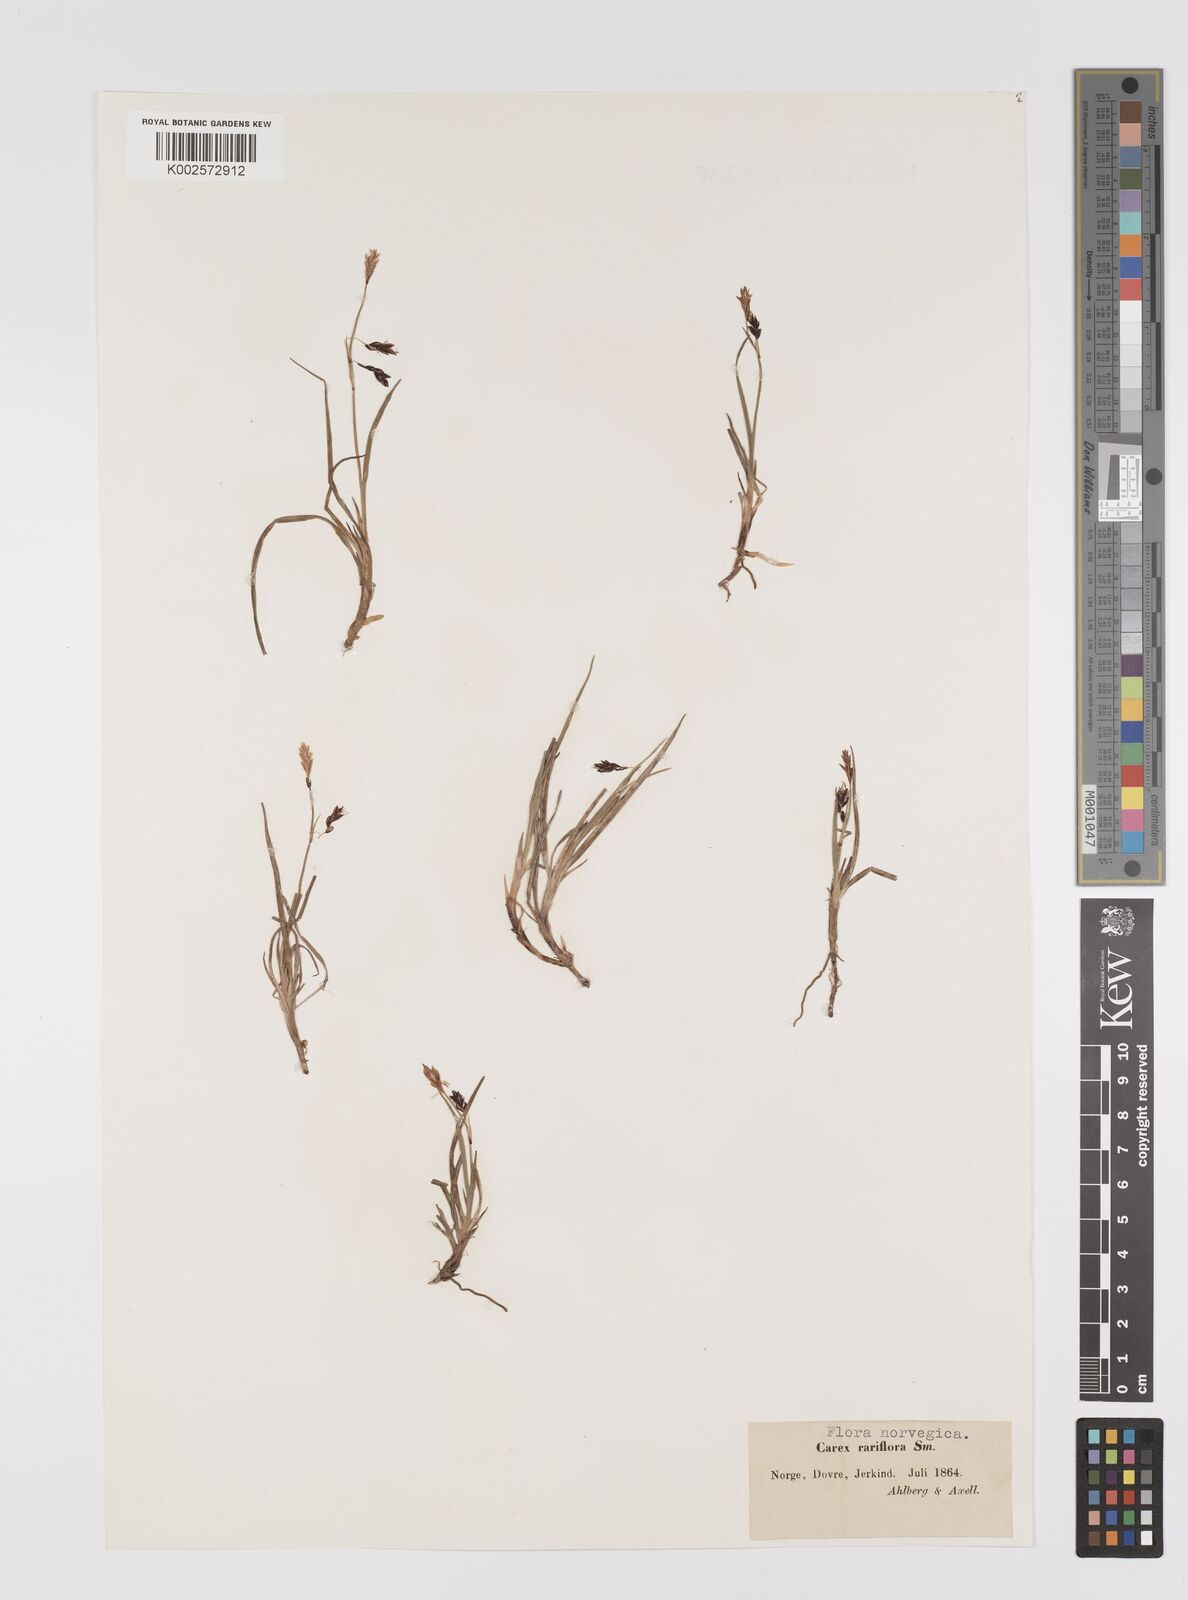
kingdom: Plantae
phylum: Tracheophyta
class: Liliopsida
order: Poales
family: Cyperaceae
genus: Carex
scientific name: Carex rariflora
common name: Loose-flowered alpine sedge
